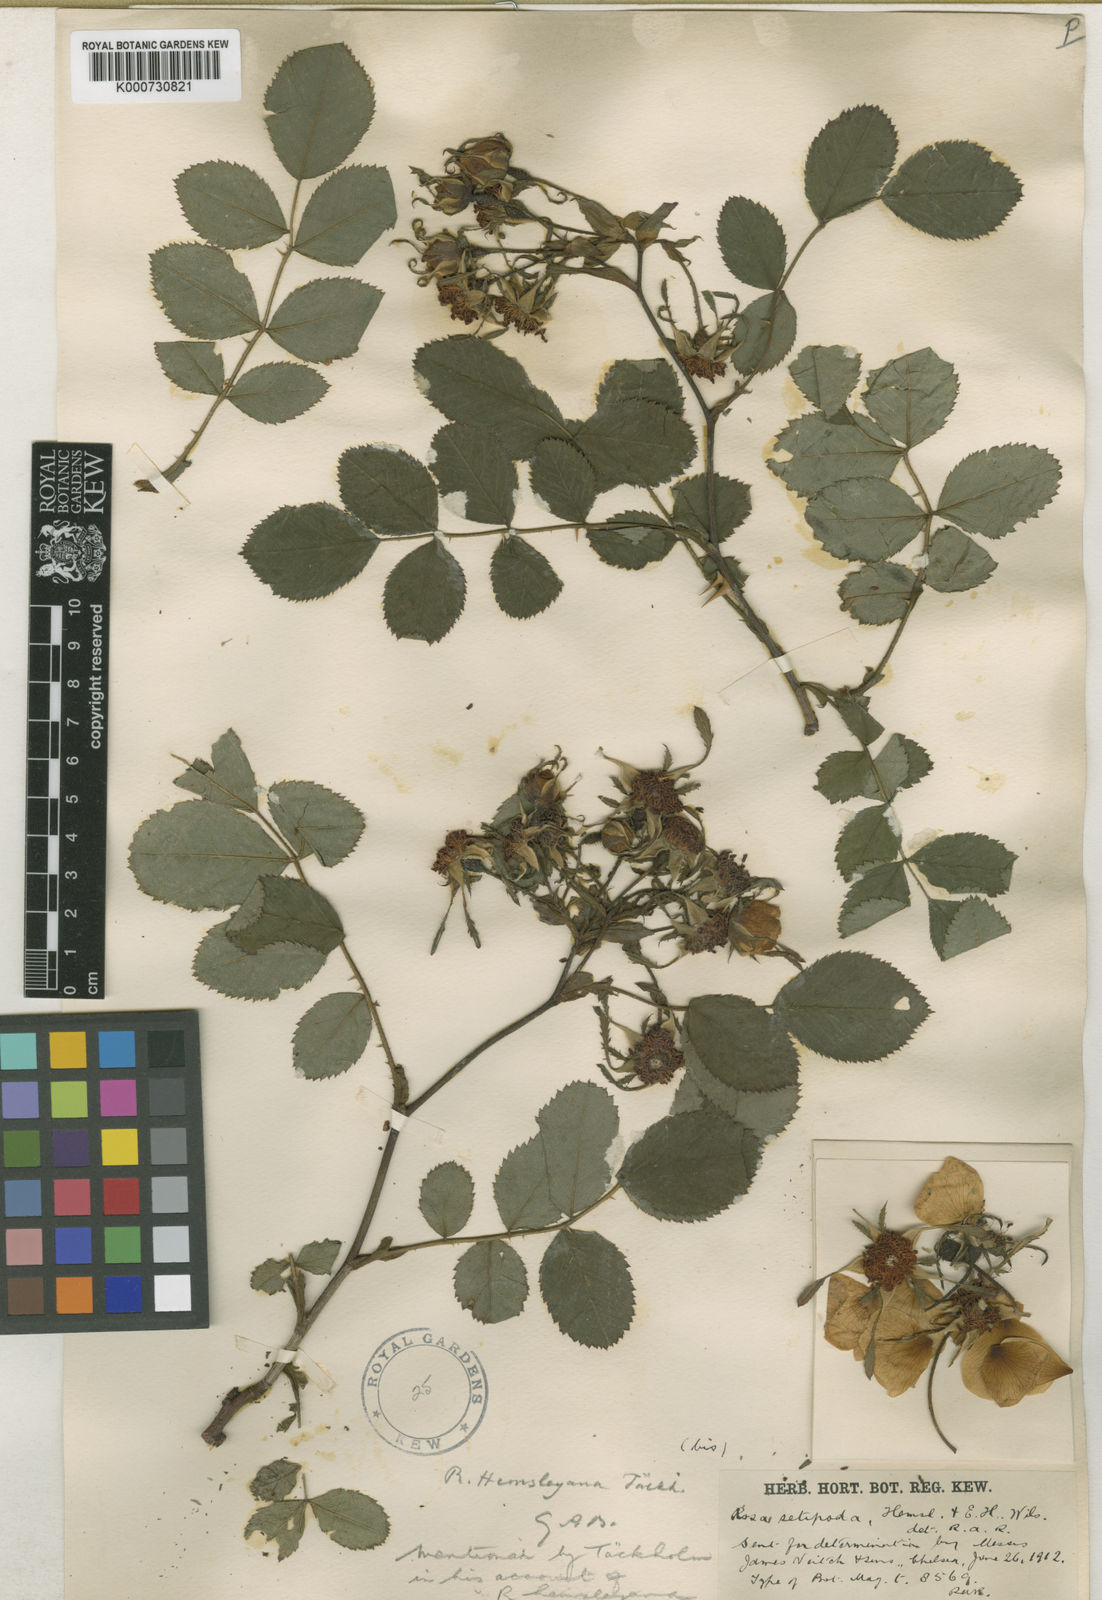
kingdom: Plantae
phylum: Tracheophyta
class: Magnoliopsida
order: Rosales
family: Rosaceae
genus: Rosa
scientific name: Rosa caudata
